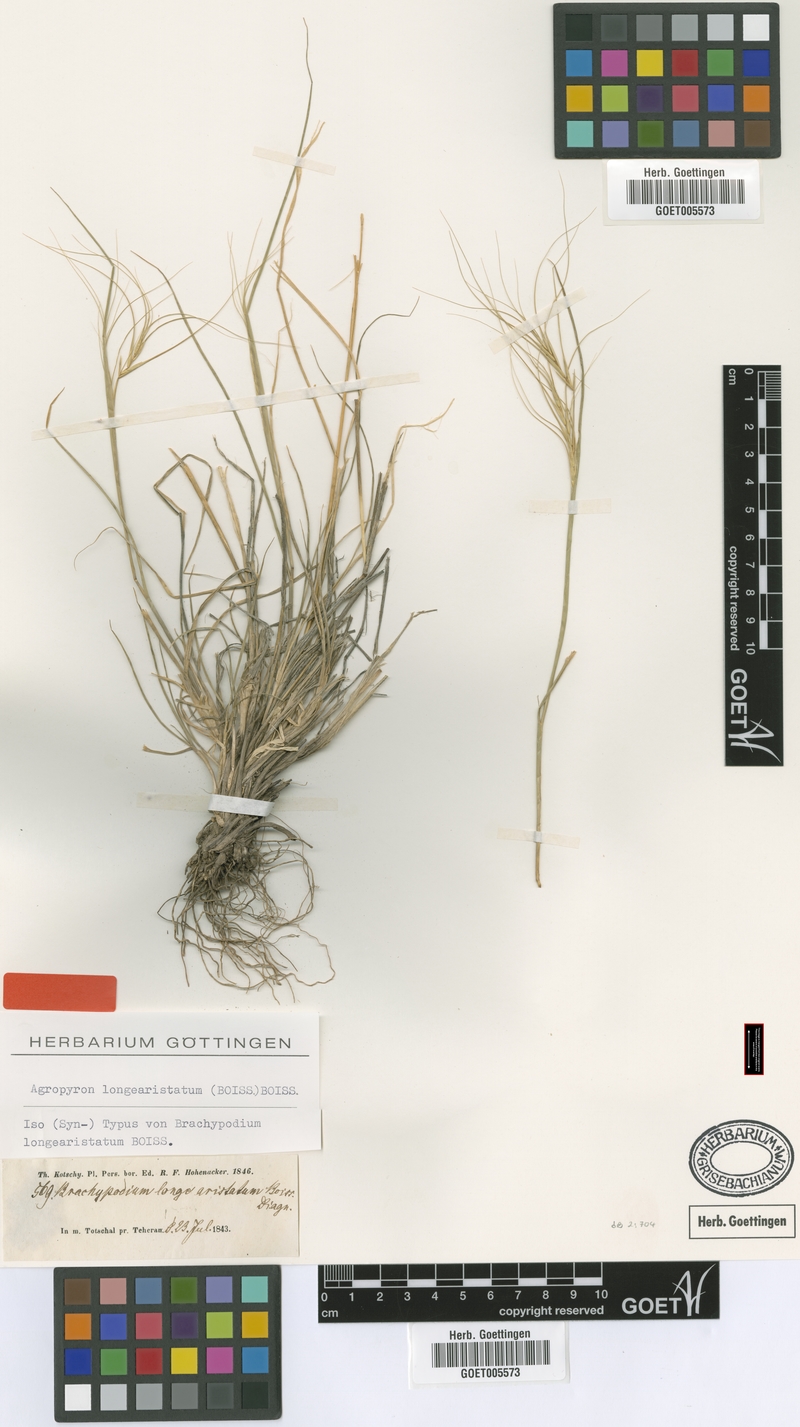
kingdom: Plantae
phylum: Tracheophyta
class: Liliopsida
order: Poales
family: Poaceae
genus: Elymus
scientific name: Elymus longearistatus
